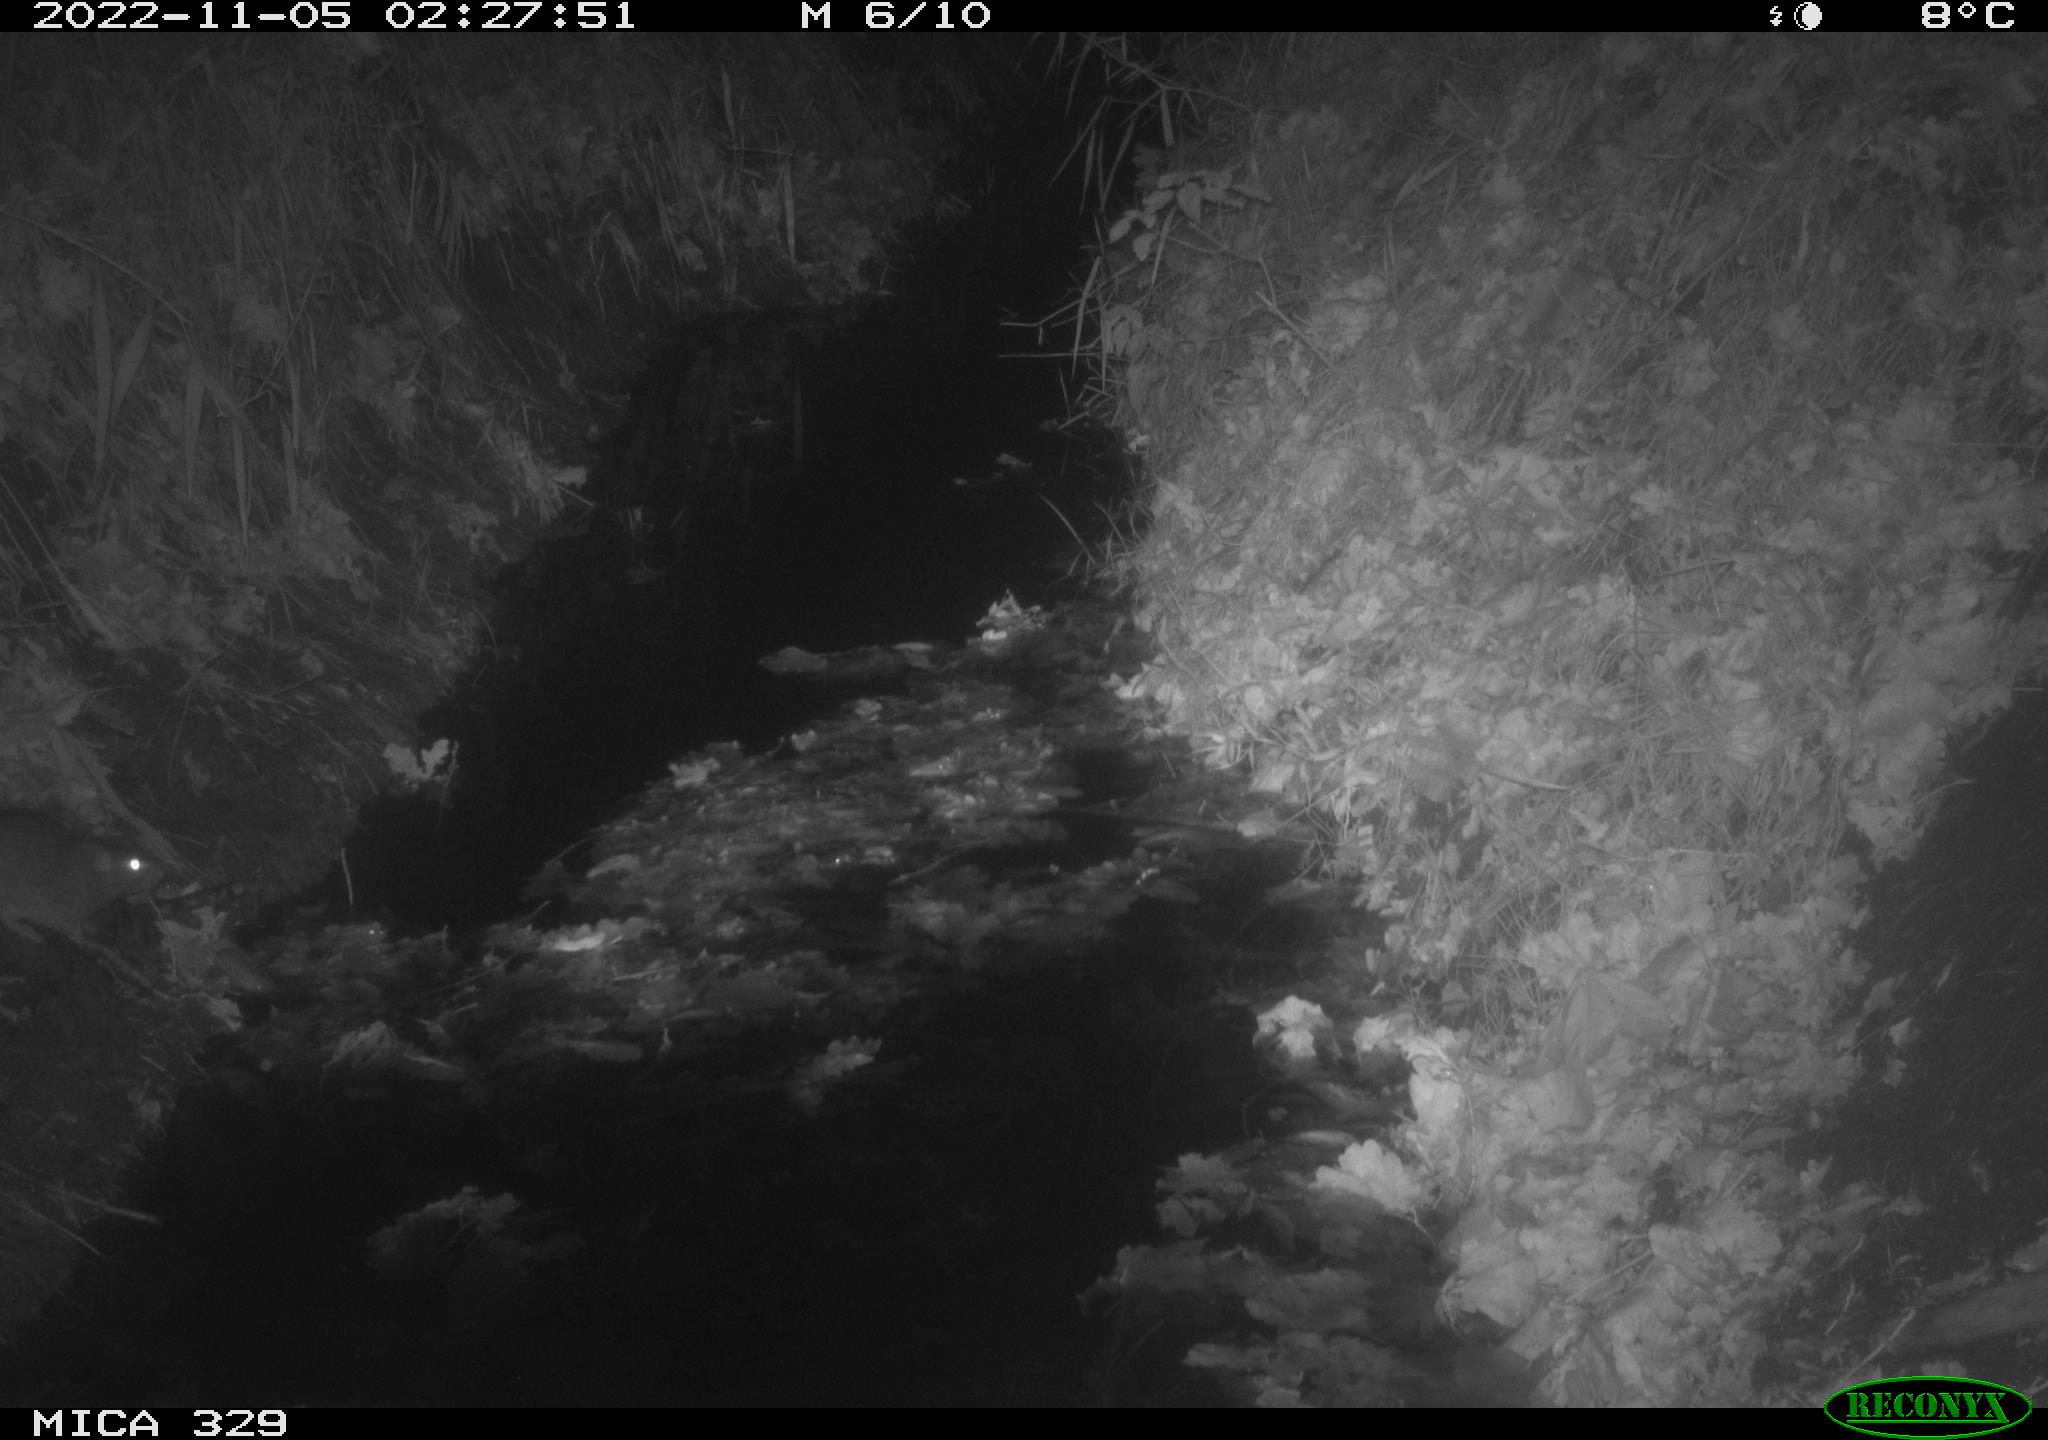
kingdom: Animalia
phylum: Chordata
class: Mammalia
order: Rodentia
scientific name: Rodentia
